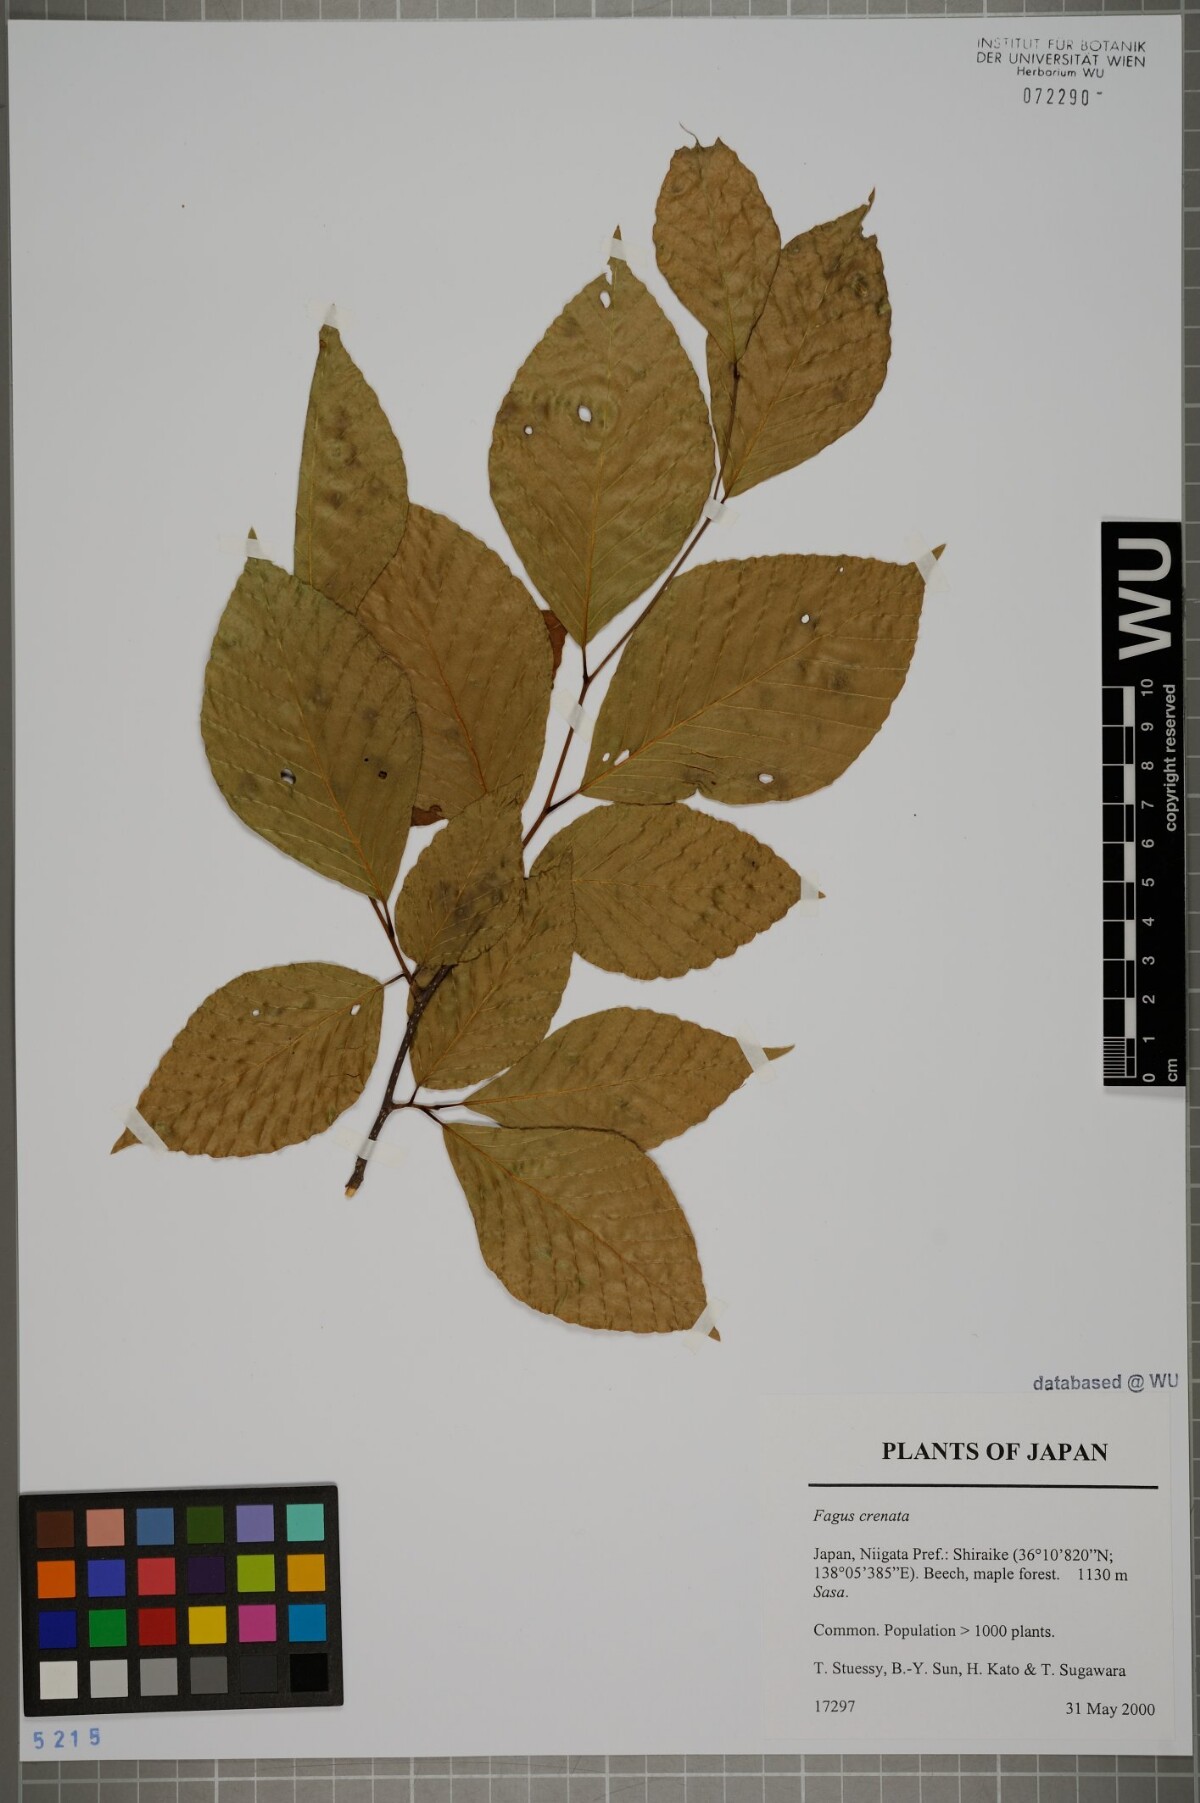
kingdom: Plantae
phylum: Tracheophyta
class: Magnoliopsida
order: Fagales
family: Fagaceae
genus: Fagus
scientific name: Fagus crenata
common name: Japanese beech
